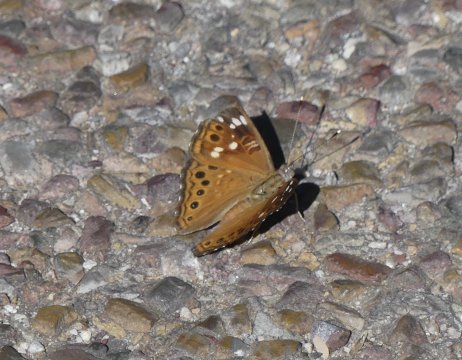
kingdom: Animalia
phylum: Arthropoda
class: Insecta
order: Lepidoptera
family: Nymphalidae
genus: Asterocampa
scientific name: Asterocampa leilia
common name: Empress Leilia
